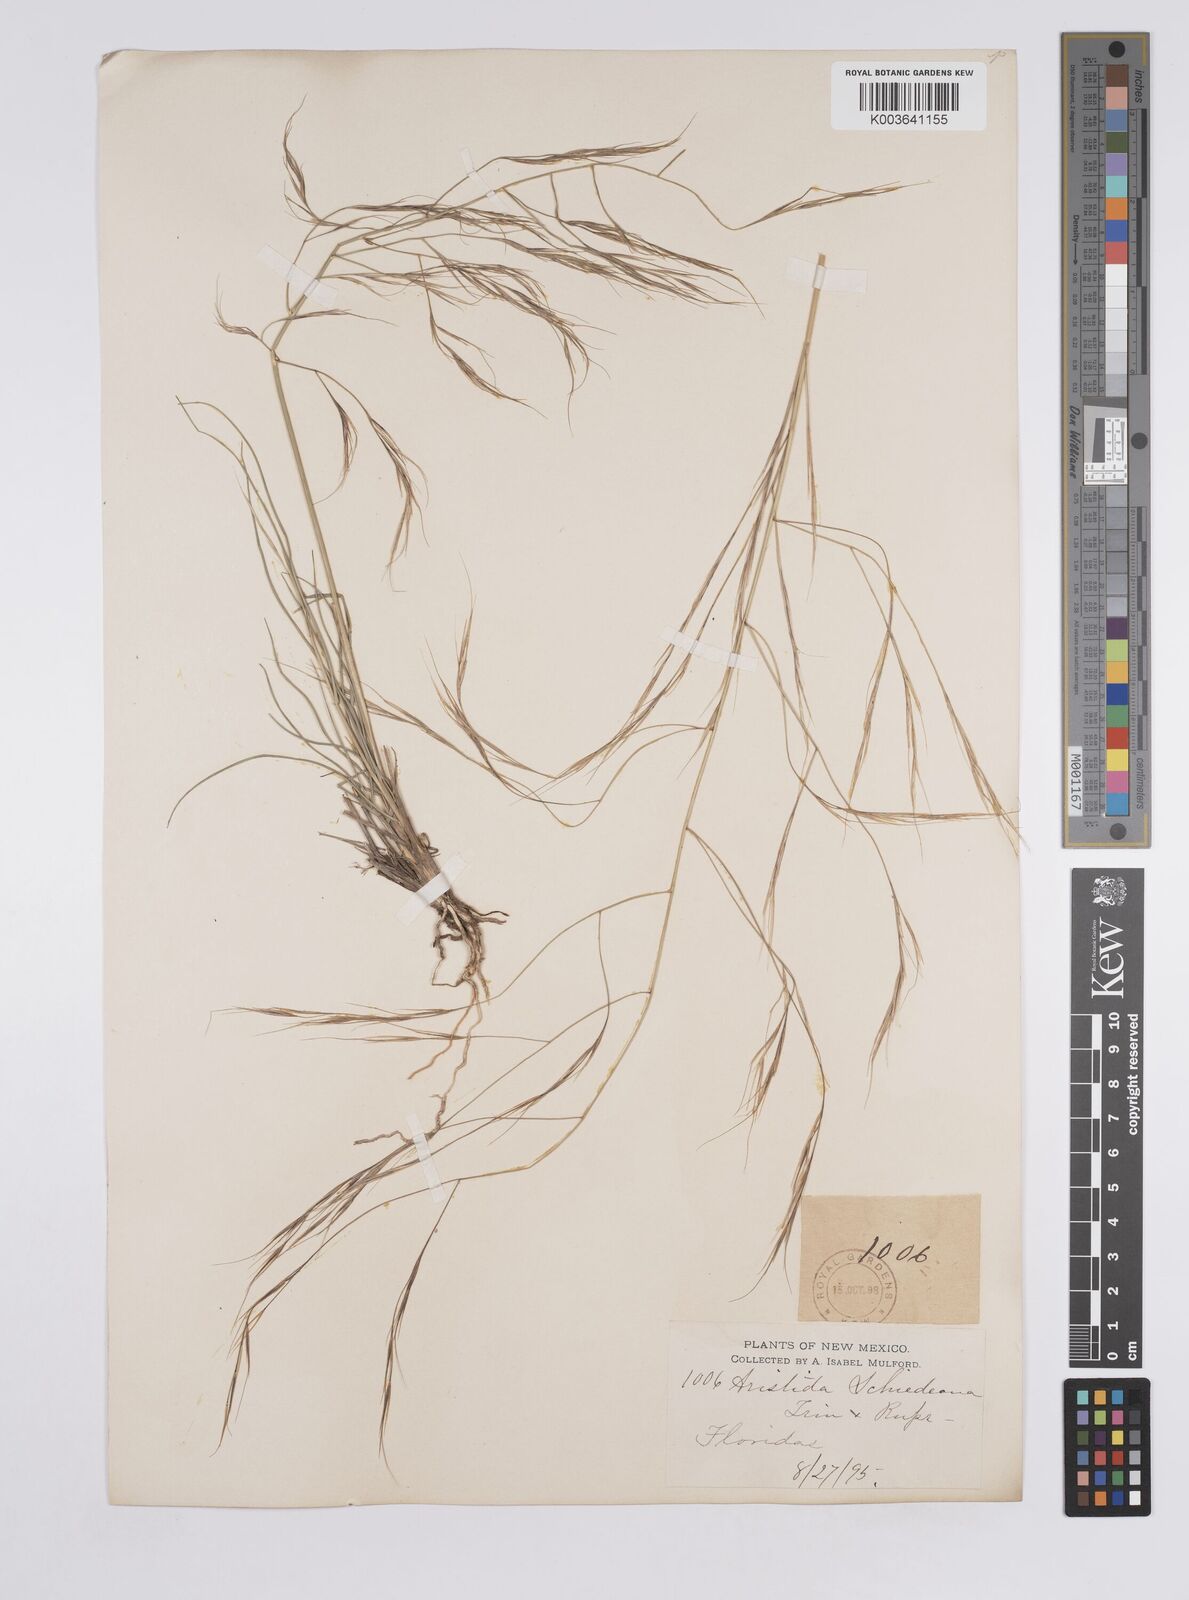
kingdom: Plantae
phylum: Tracheophyta
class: Liliopsida
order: Poales
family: Poaceae
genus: Aristida
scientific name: Aristida
